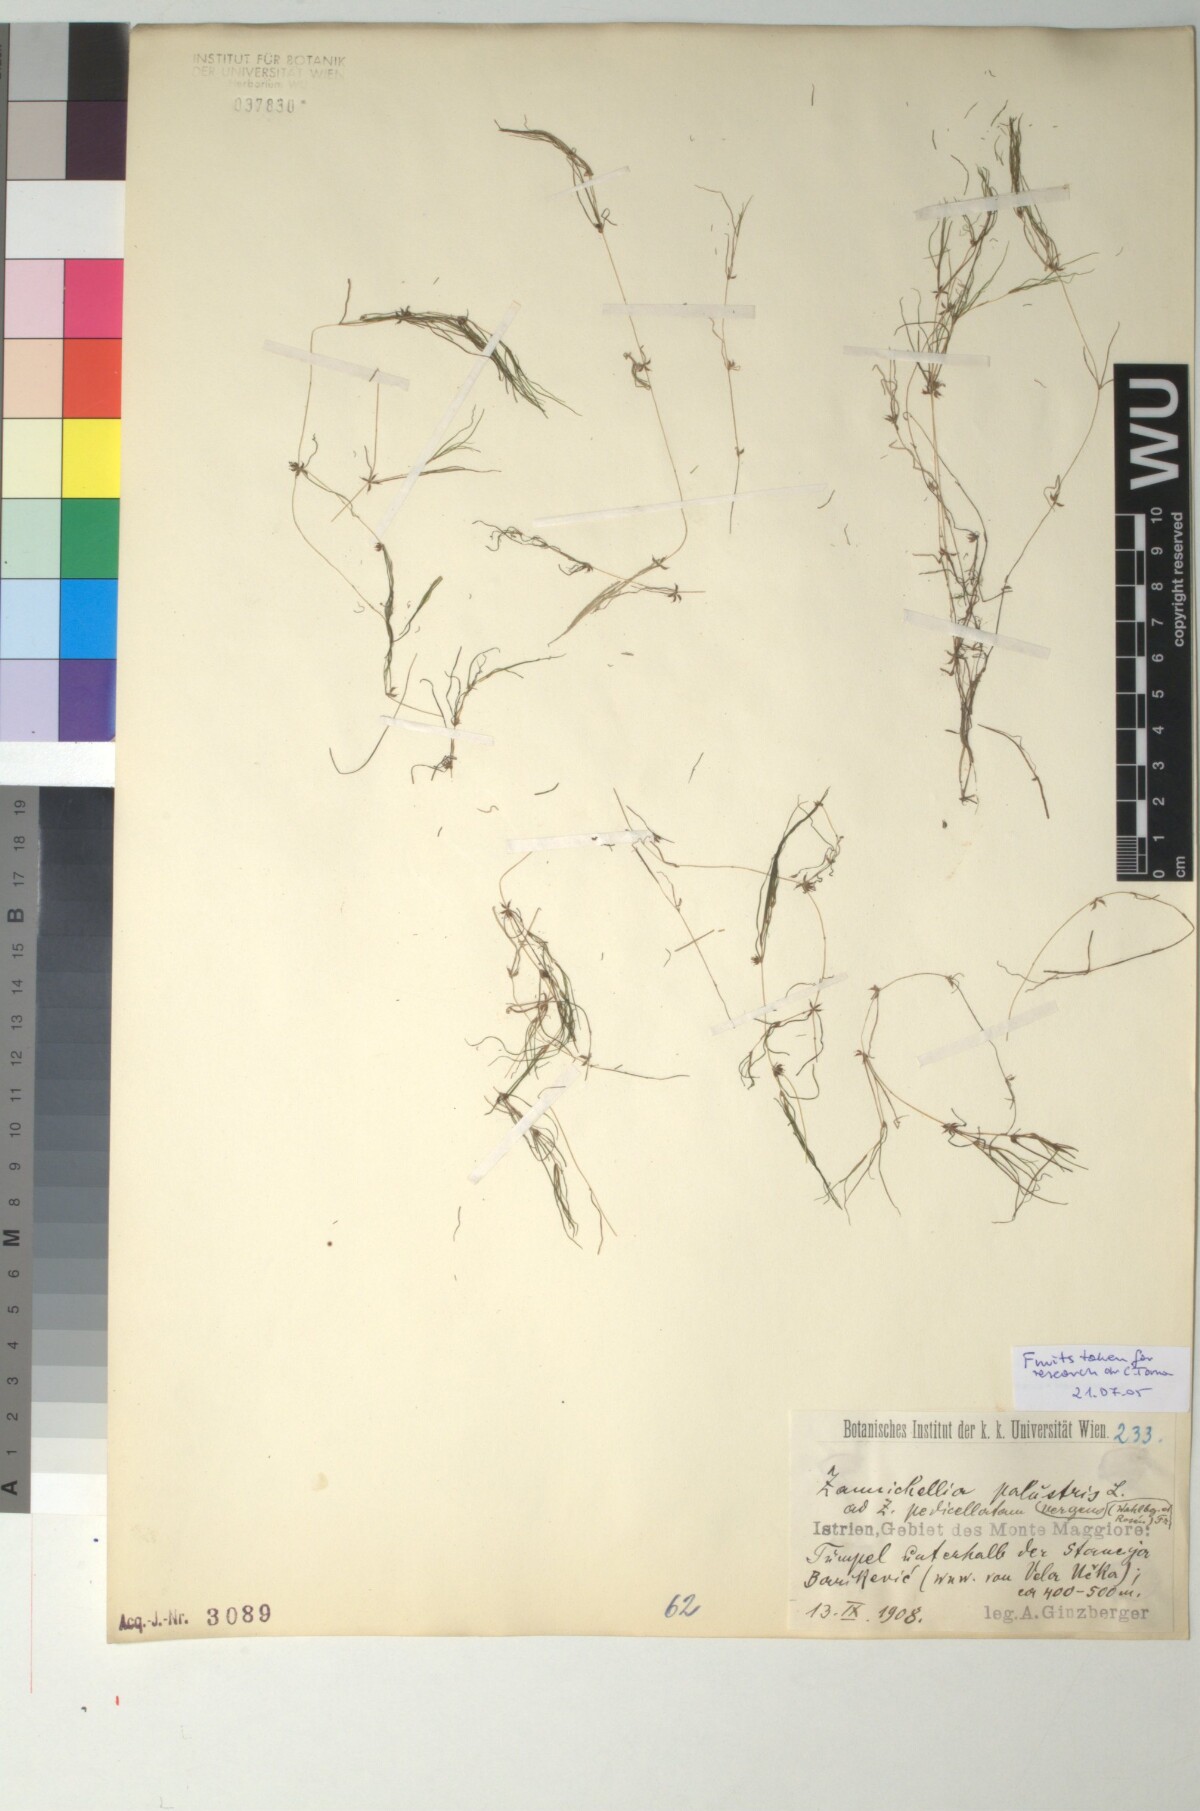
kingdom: Plantae
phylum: Tracheophyta
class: Liliopsida
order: Alismatales
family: Potamogetonaceae
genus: Zannichellia
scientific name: Zannichellia palustris
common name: Horned pondweed
